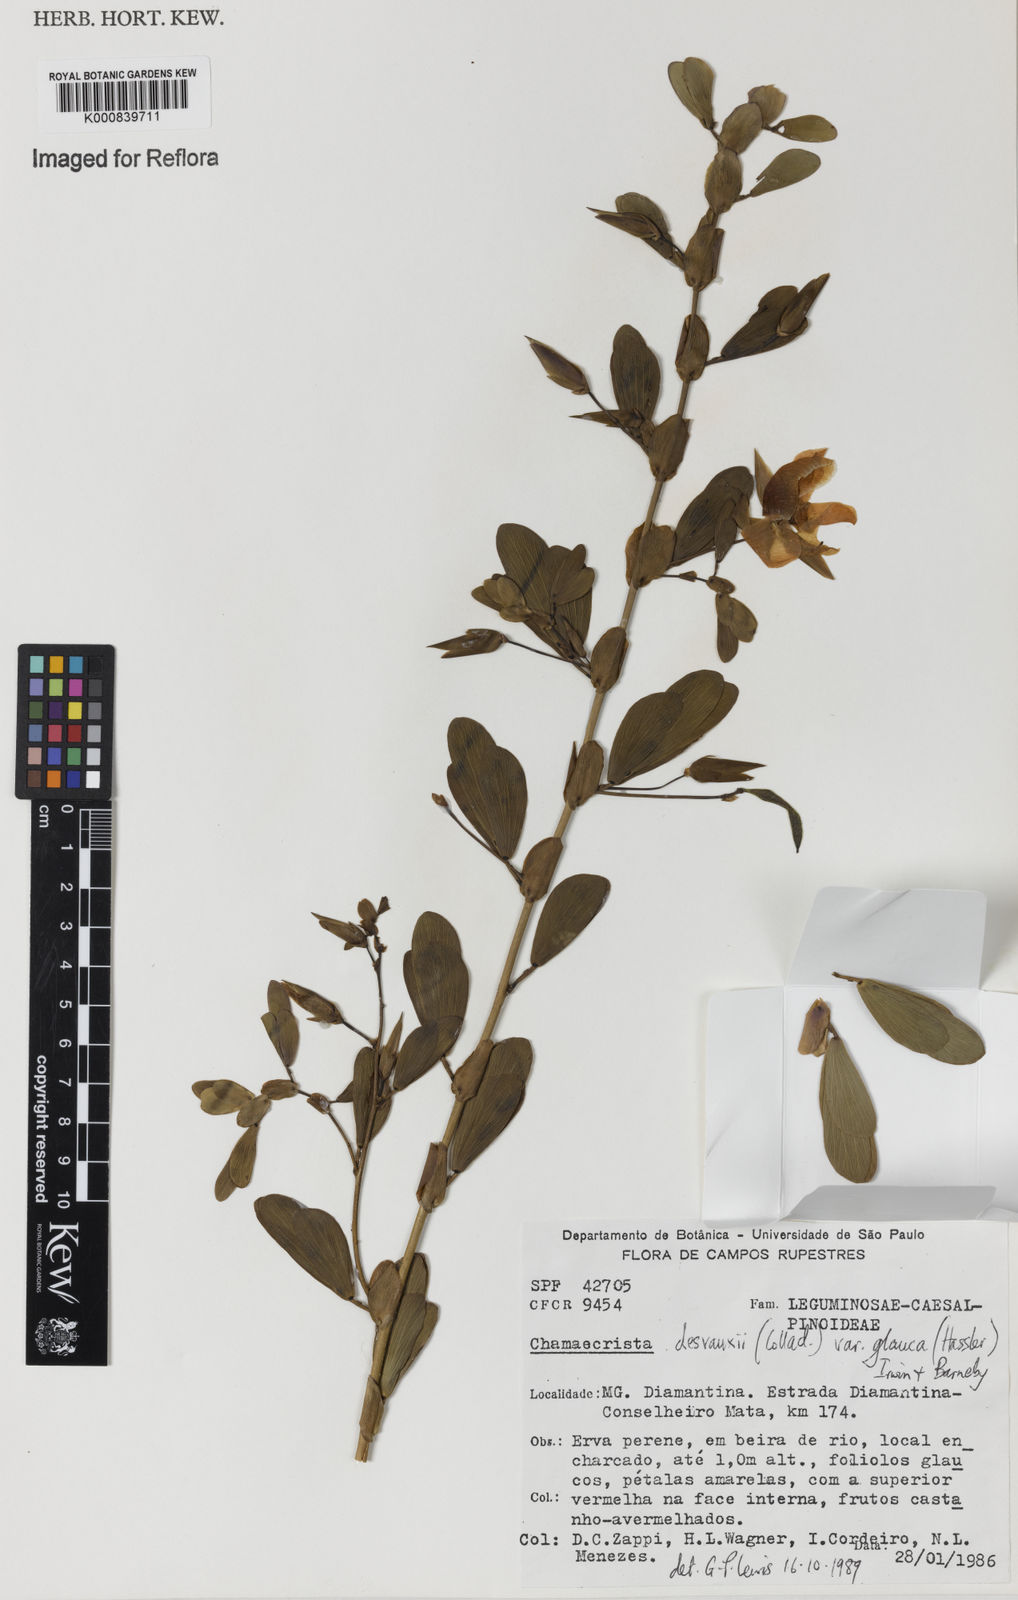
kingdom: Plantae
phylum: Tracheophyta
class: Magnoliopsida
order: Fabales
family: Fabaceae
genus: Chamaecrista
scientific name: Chamaecrista desvauxii
